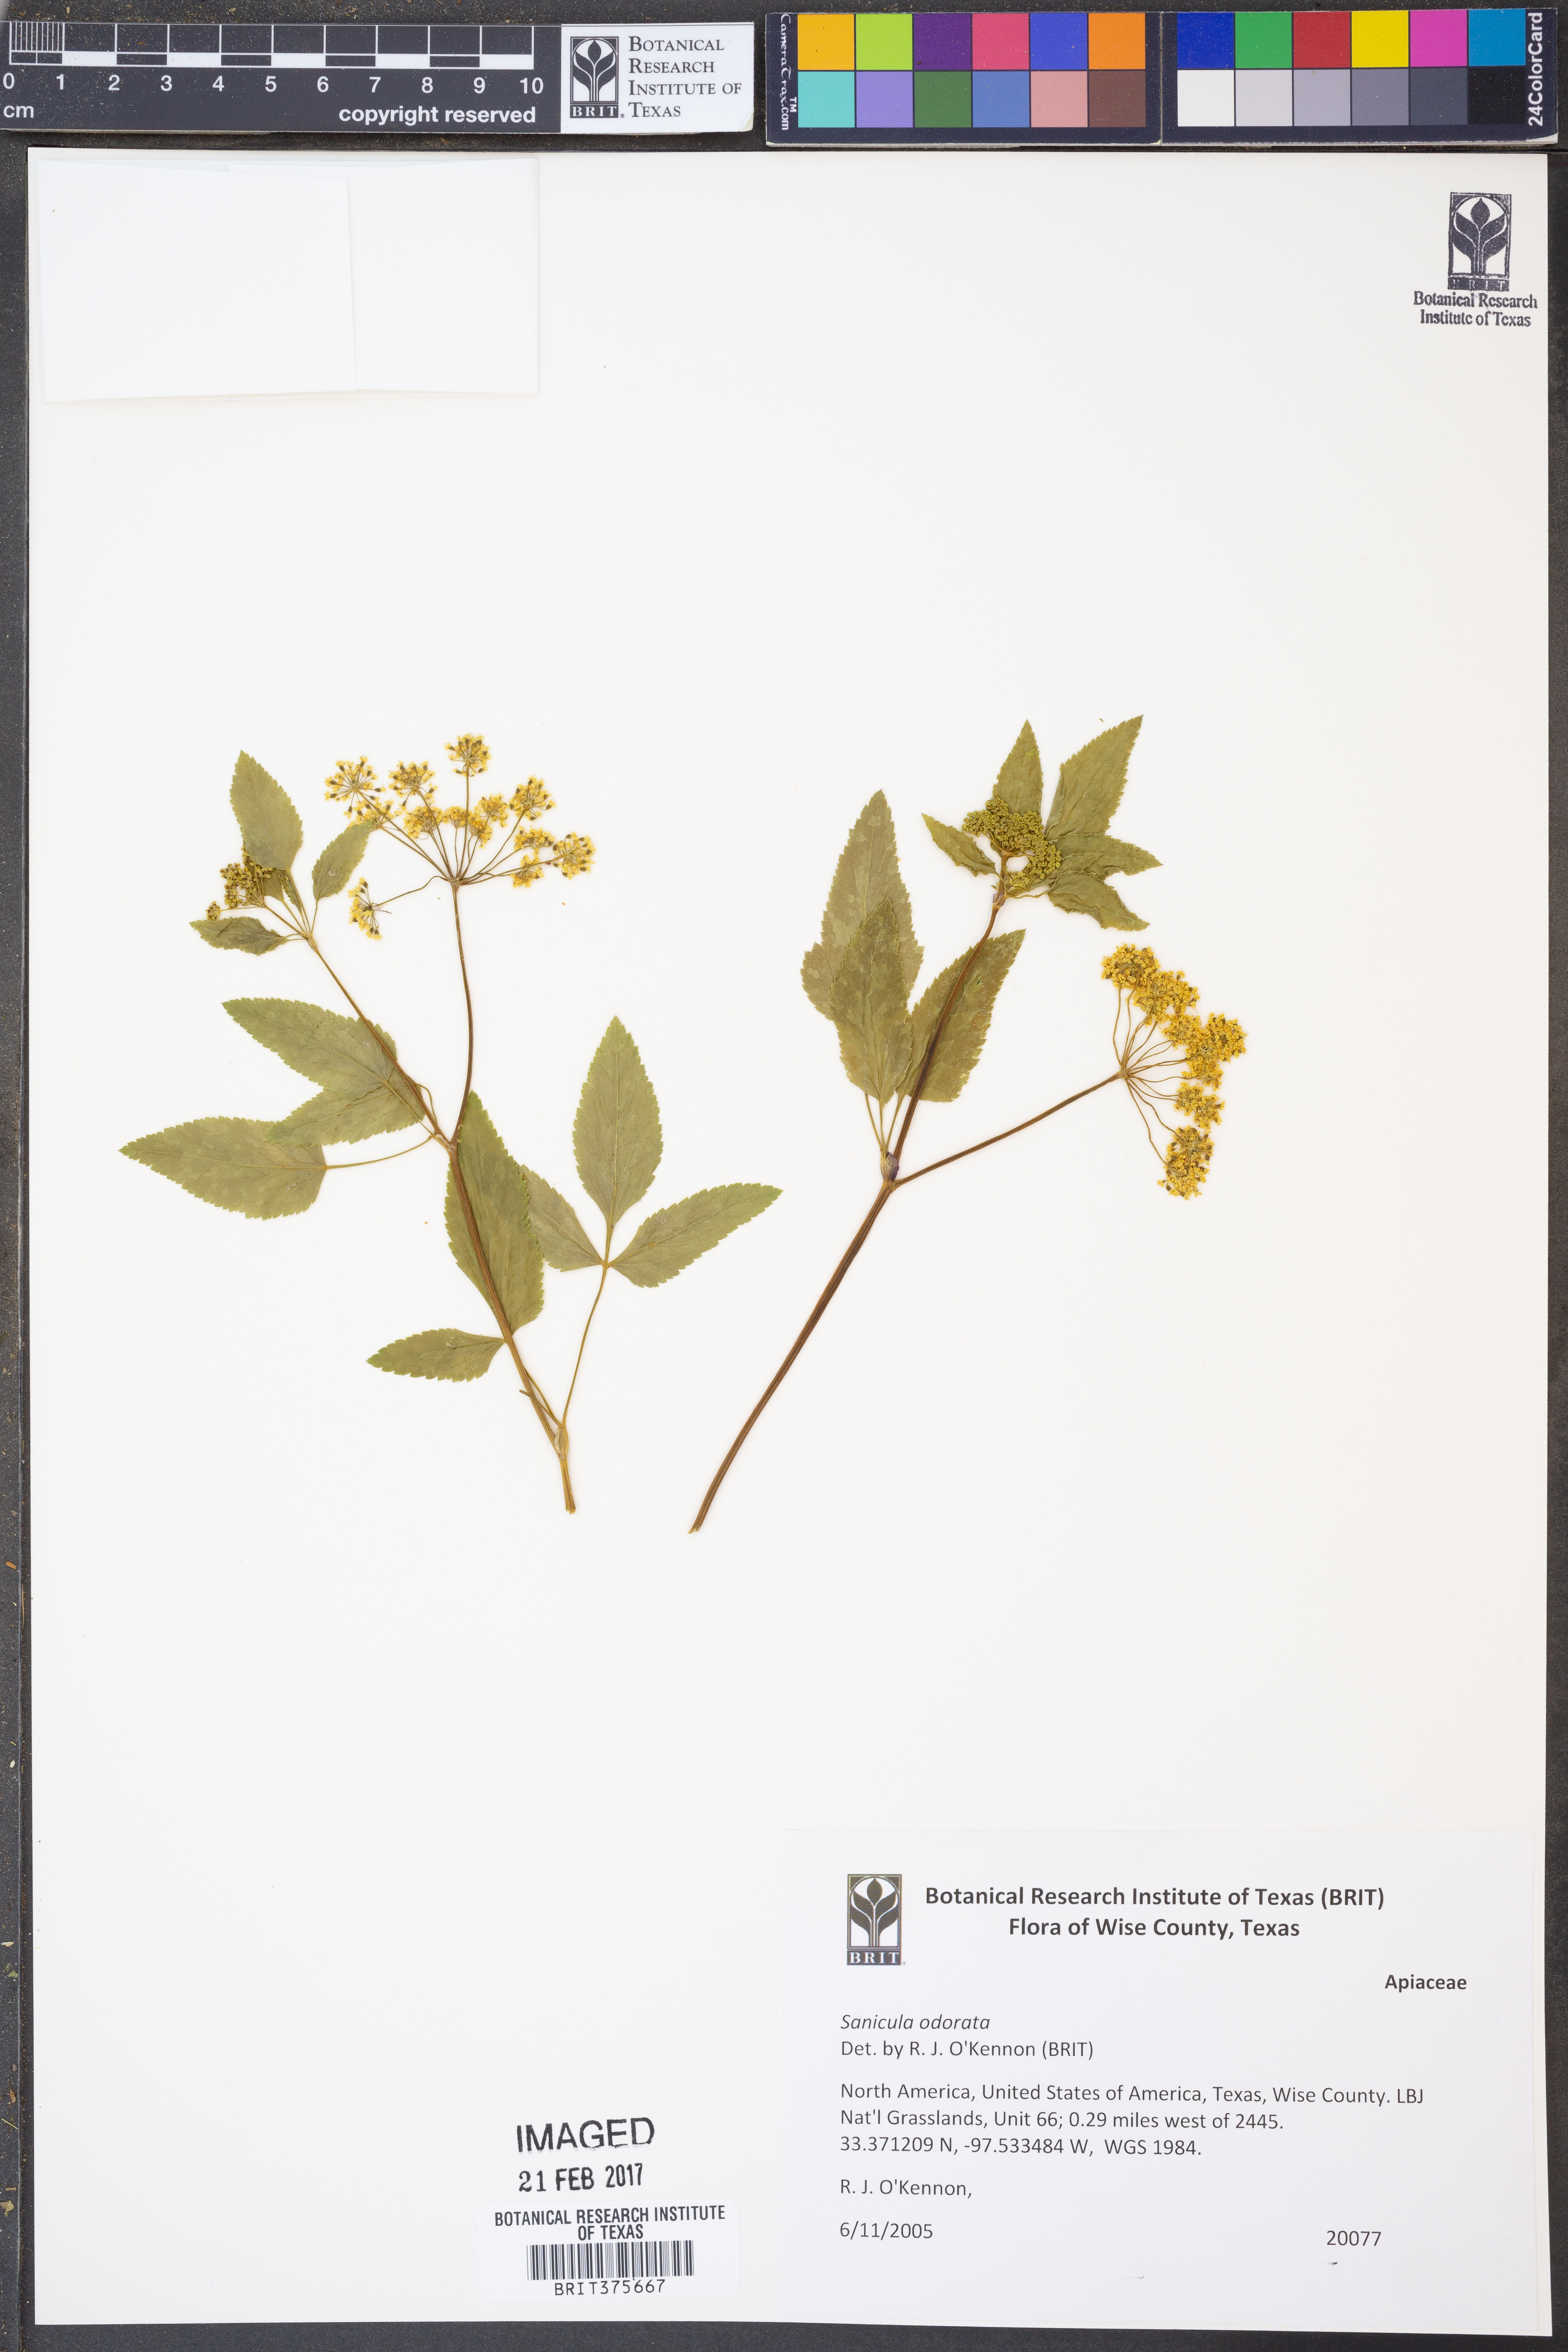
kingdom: Plantae
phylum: Tracheophyta
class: Magnoliopsida
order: Apiales
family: Apiaceae
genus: Sanicula
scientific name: Sanicula odorata
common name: Cluster sanicle
